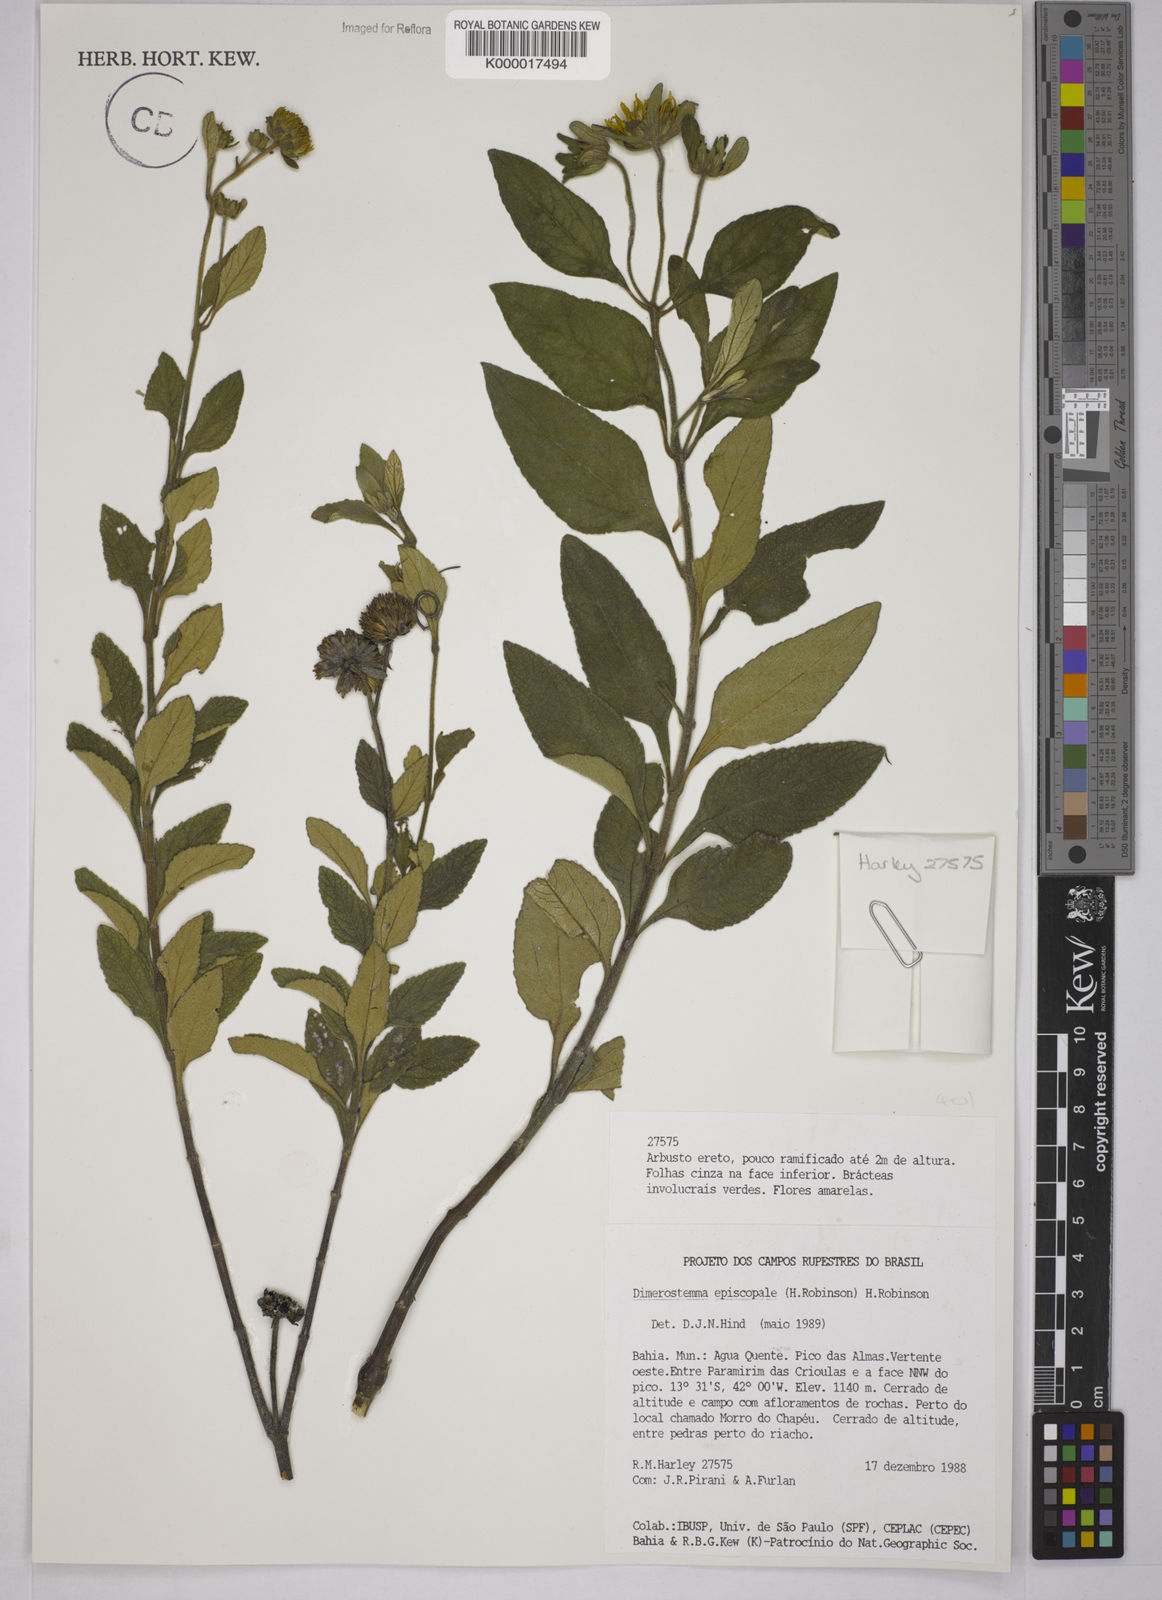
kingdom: Plantae
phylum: Tracheophyta
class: Magnoliopsida
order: Asterales
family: Asteraceae
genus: Dimerostemma
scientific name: Dimerostemma episcopale
